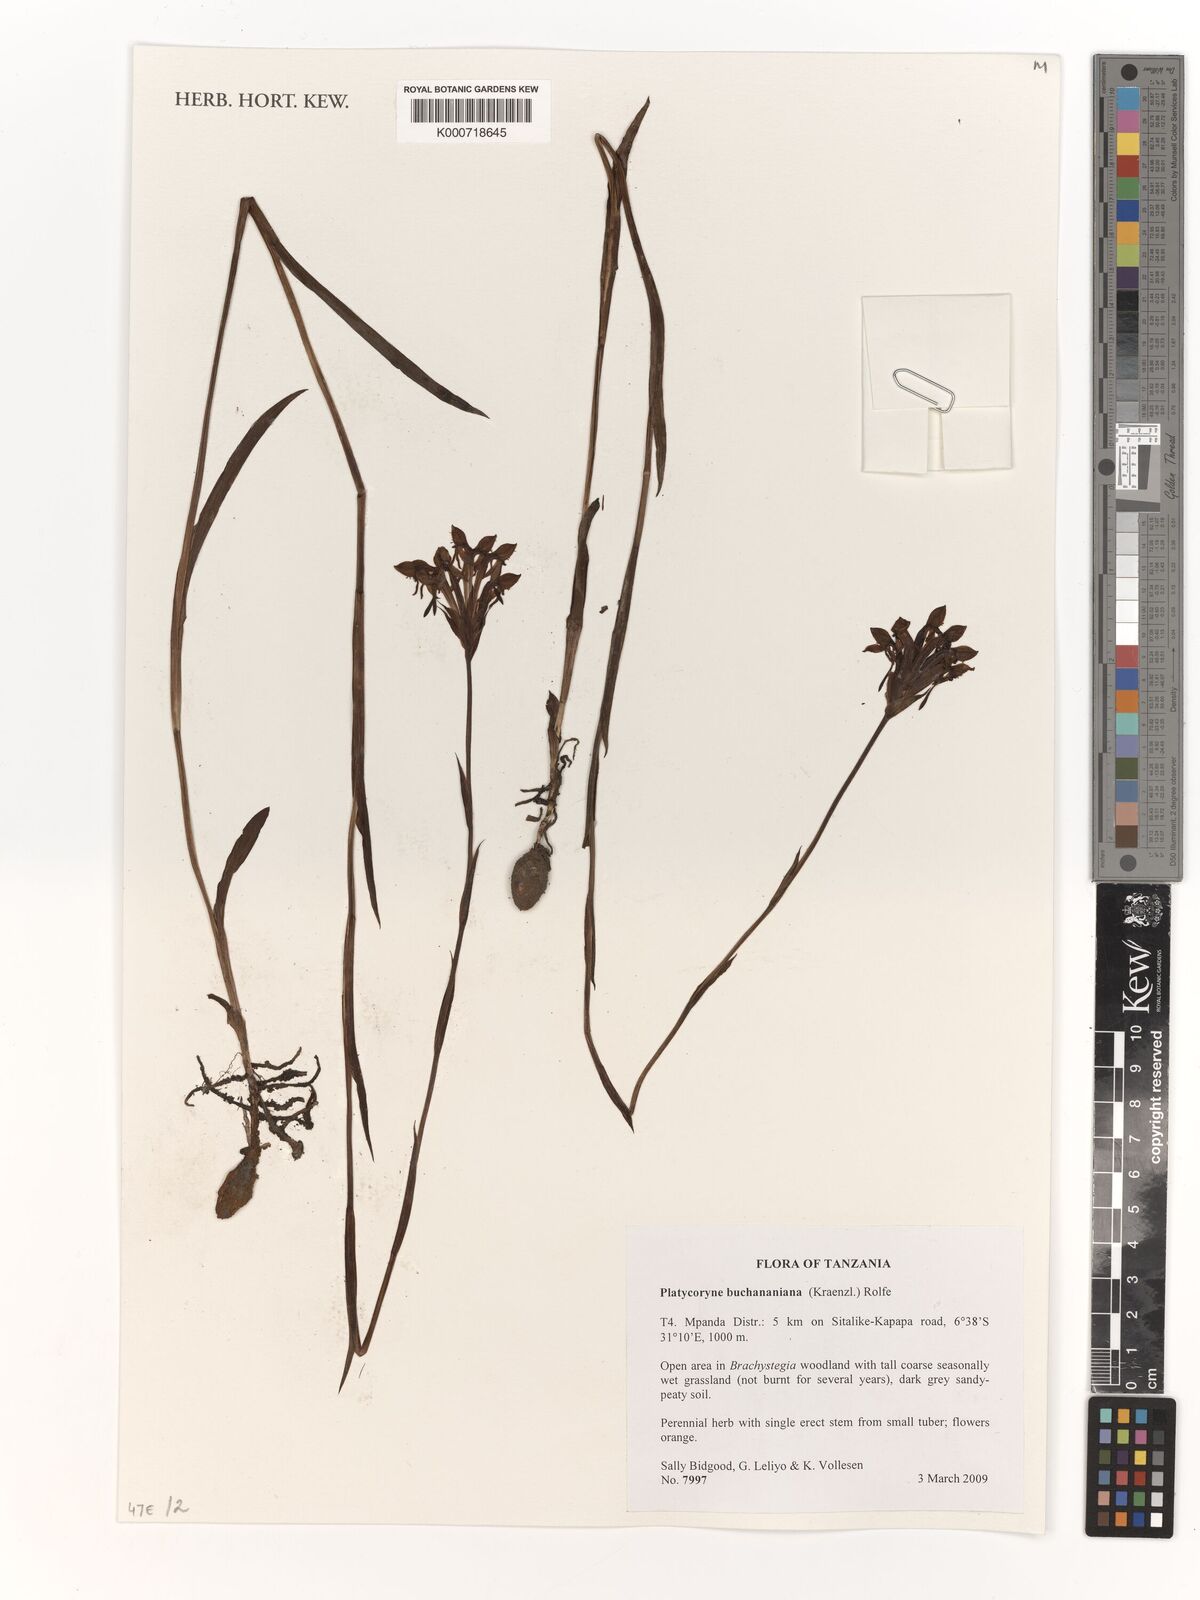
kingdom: Plantae
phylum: Tracheophyta
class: Liliopsida
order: Asparagales
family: Orchidaceae
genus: Platycoryne
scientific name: Platycoryne buchananiana
